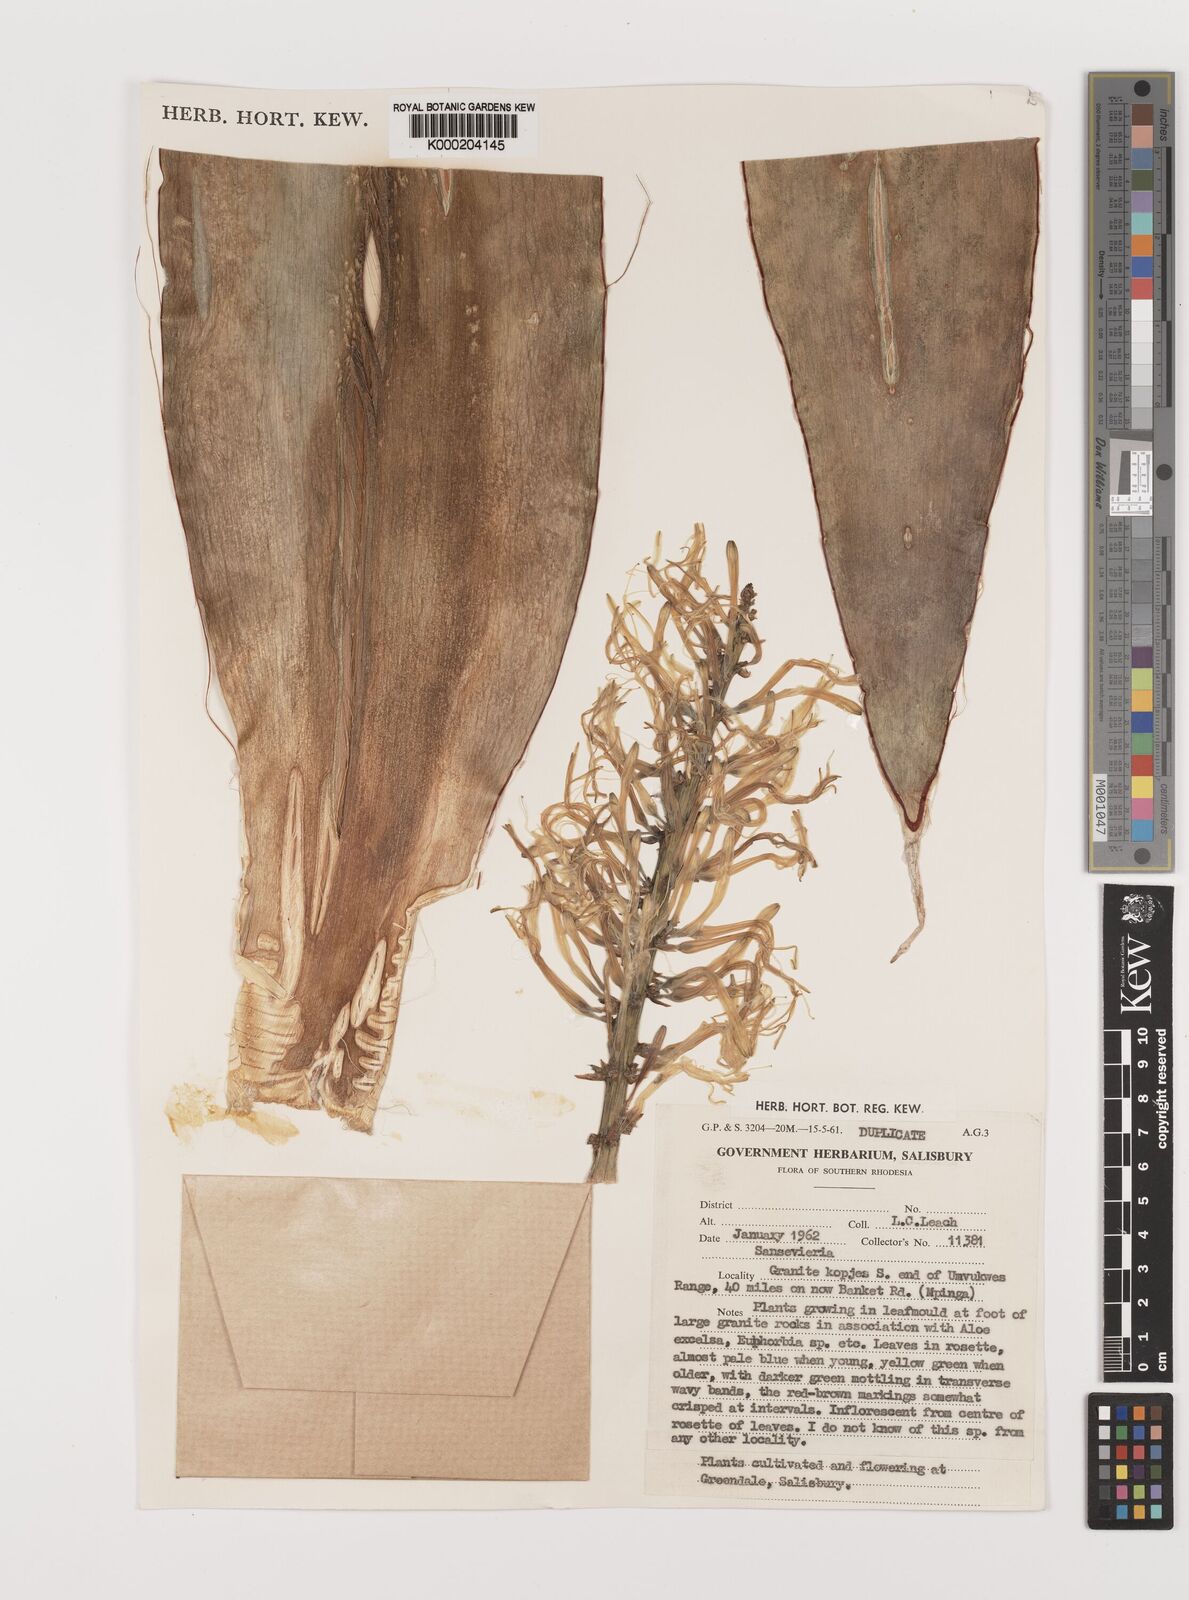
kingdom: Plantae
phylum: Tracheophyta
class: Liliopsida
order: Asparagales
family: Asparagaceae
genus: Dracaena
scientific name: Dracaena
